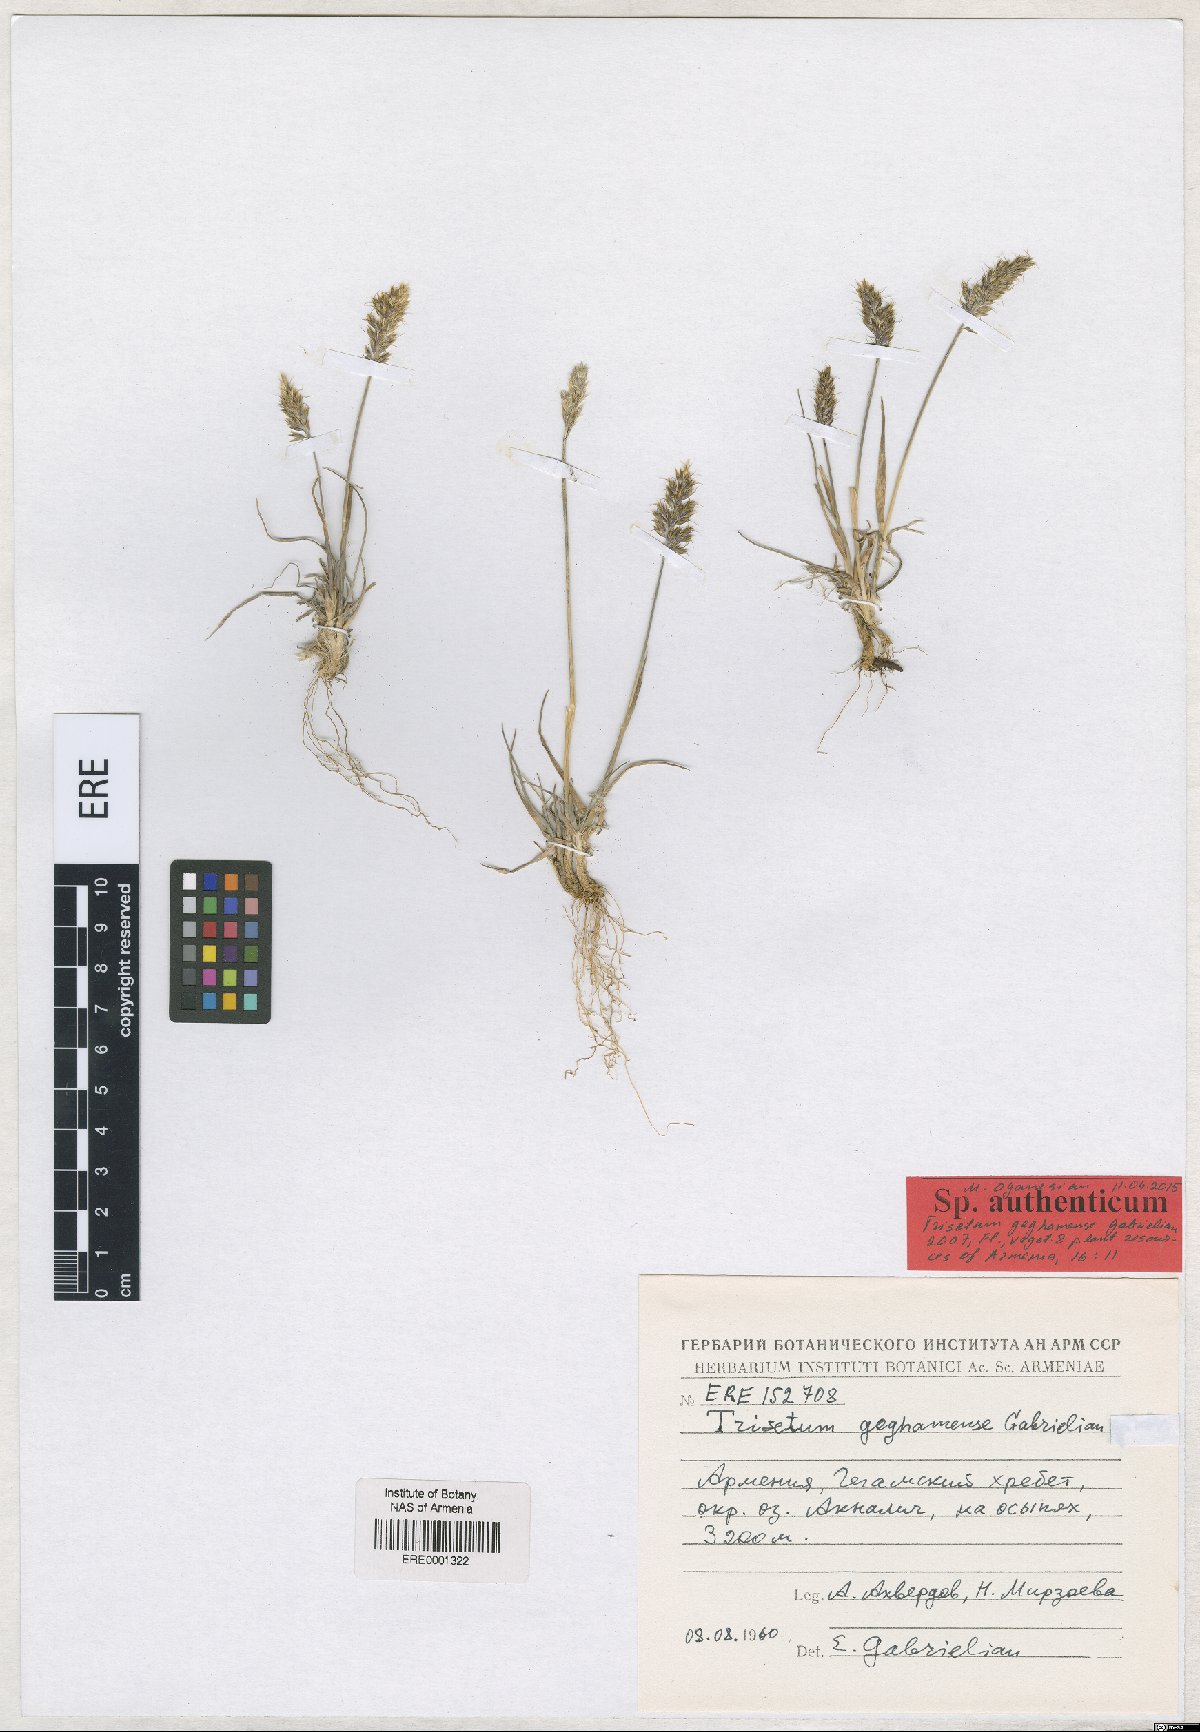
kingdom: Plantae
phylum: Tracheophyta
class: Liliopsida
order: Poales
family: Poaceae
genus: Koeleria
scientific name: Koeleria spicata
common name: Mountain trisetum
